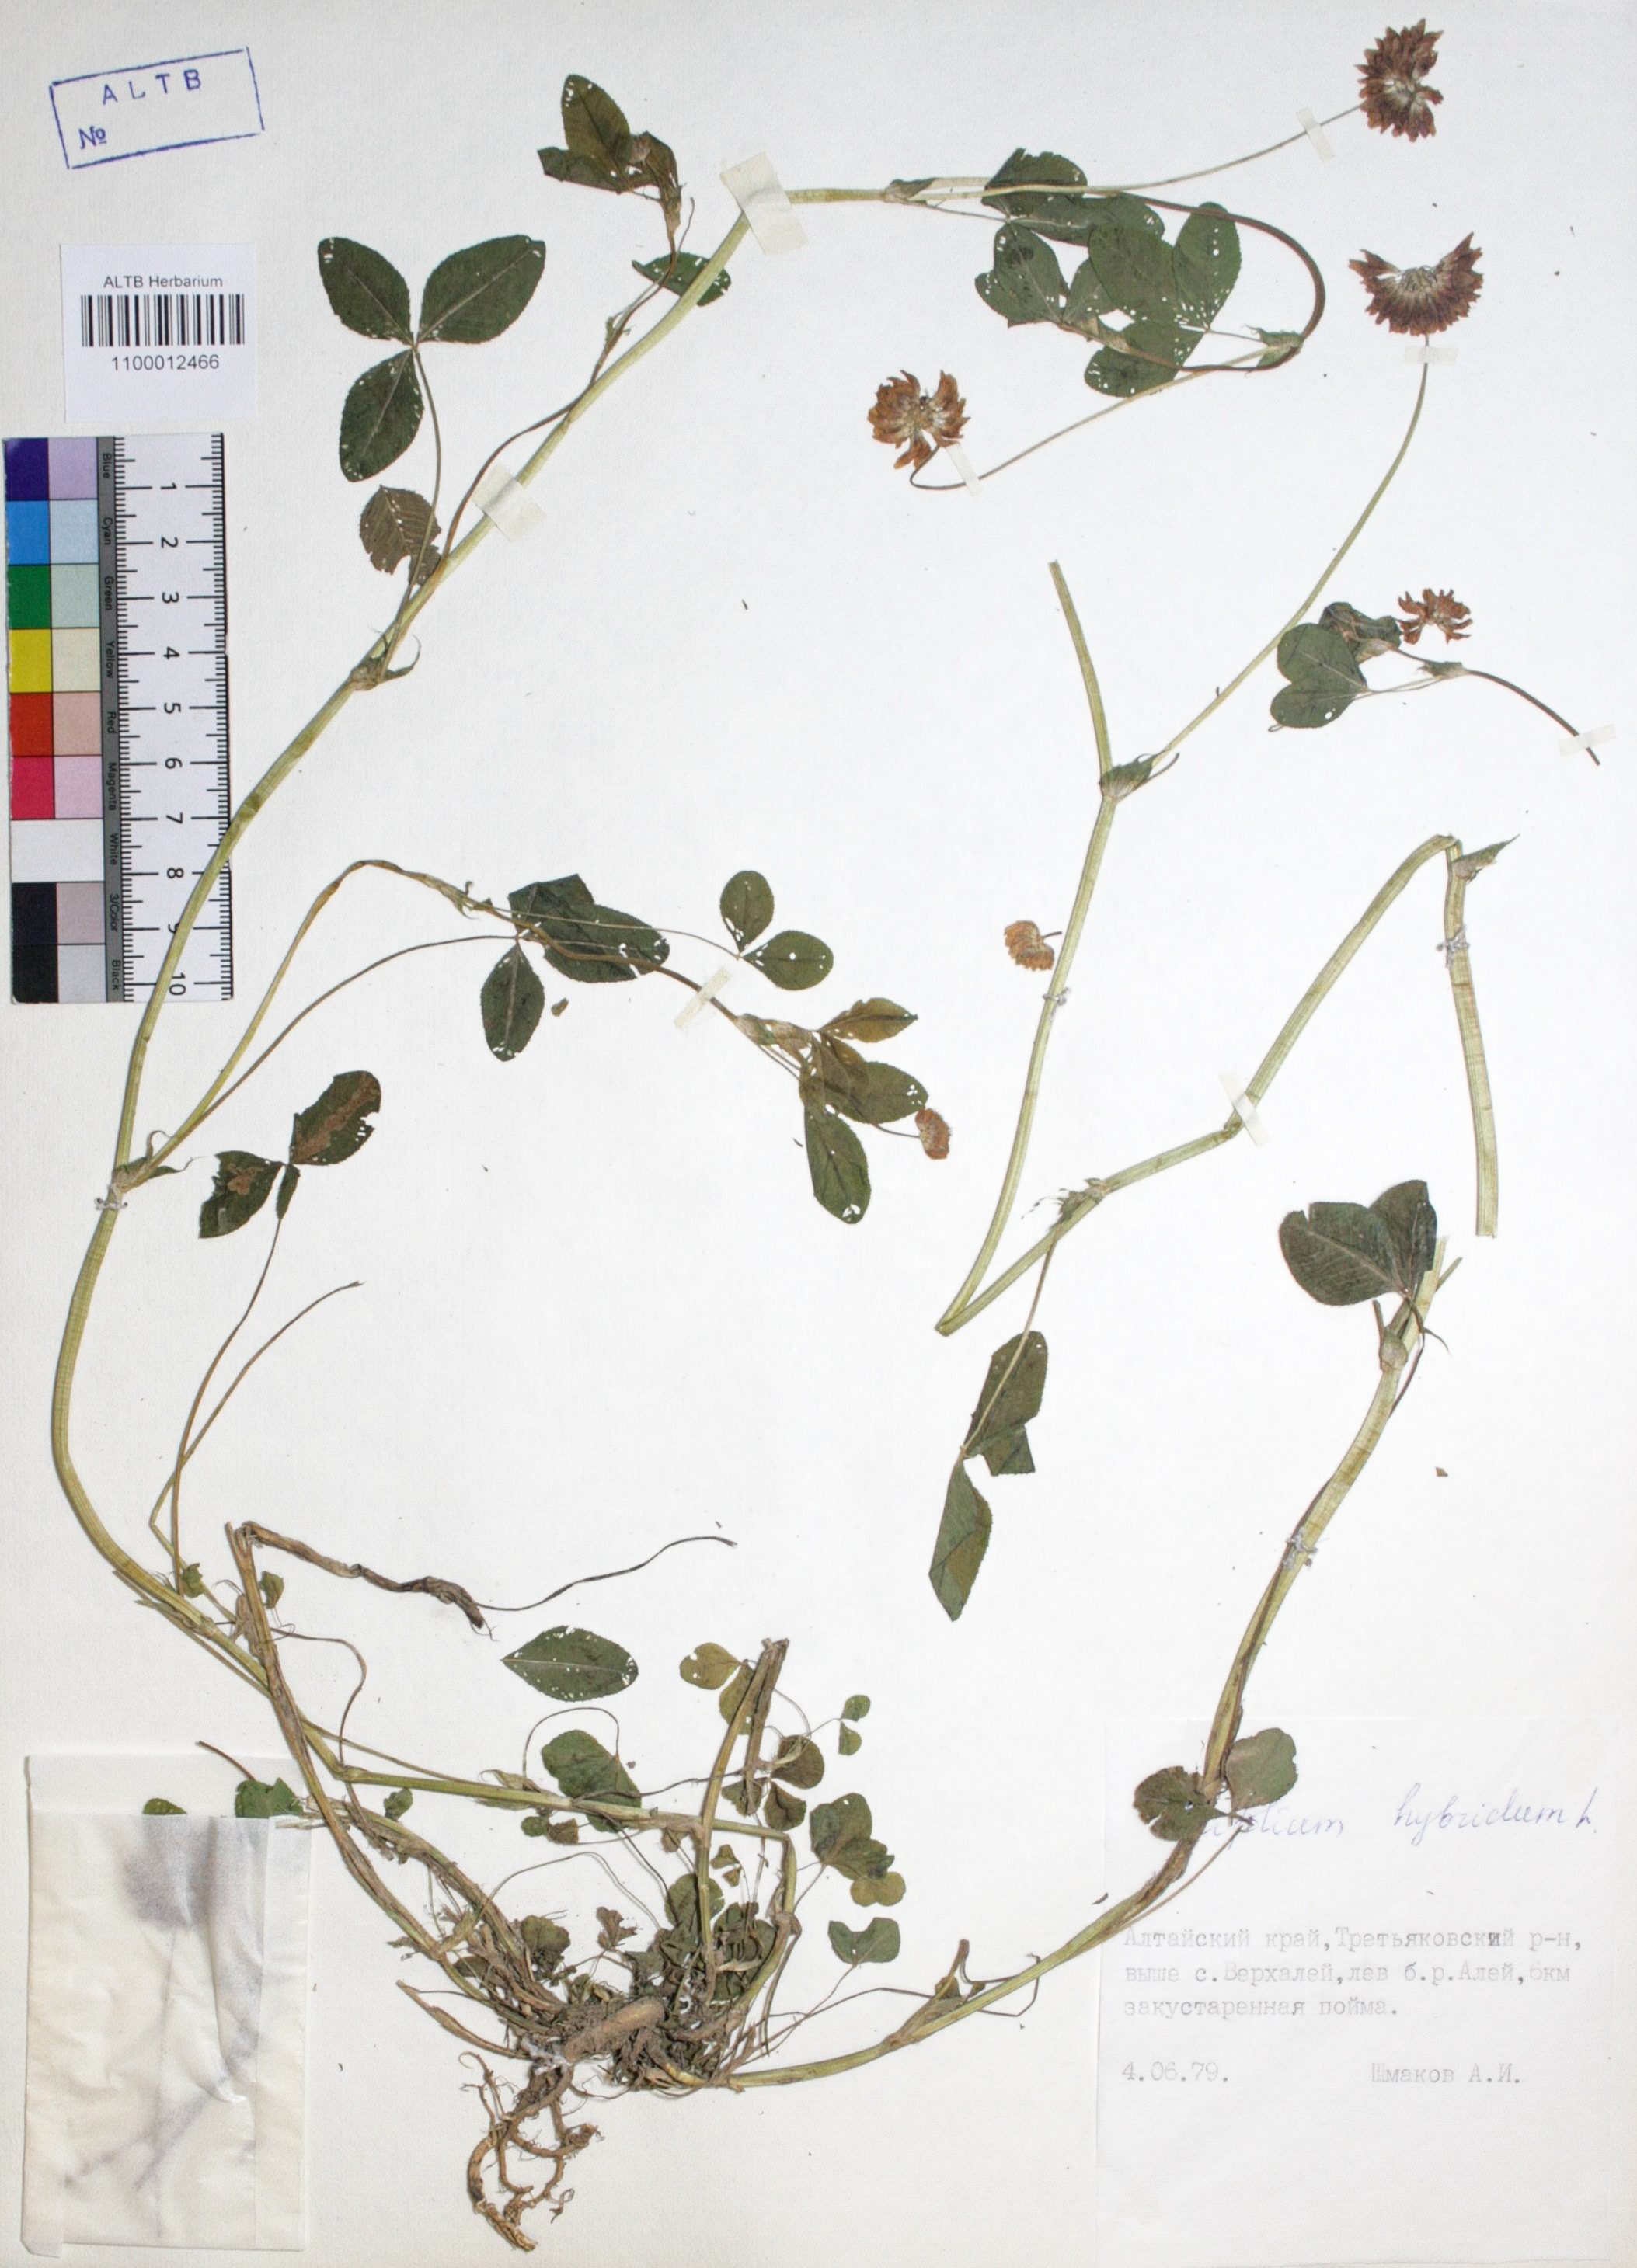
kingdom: Plantae
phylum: Tracheophyta
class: Magnoliopsida
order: Fabales
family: Fabaceae
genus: Trifolium
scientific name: Trifolium hybridum
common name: Alsike clover
